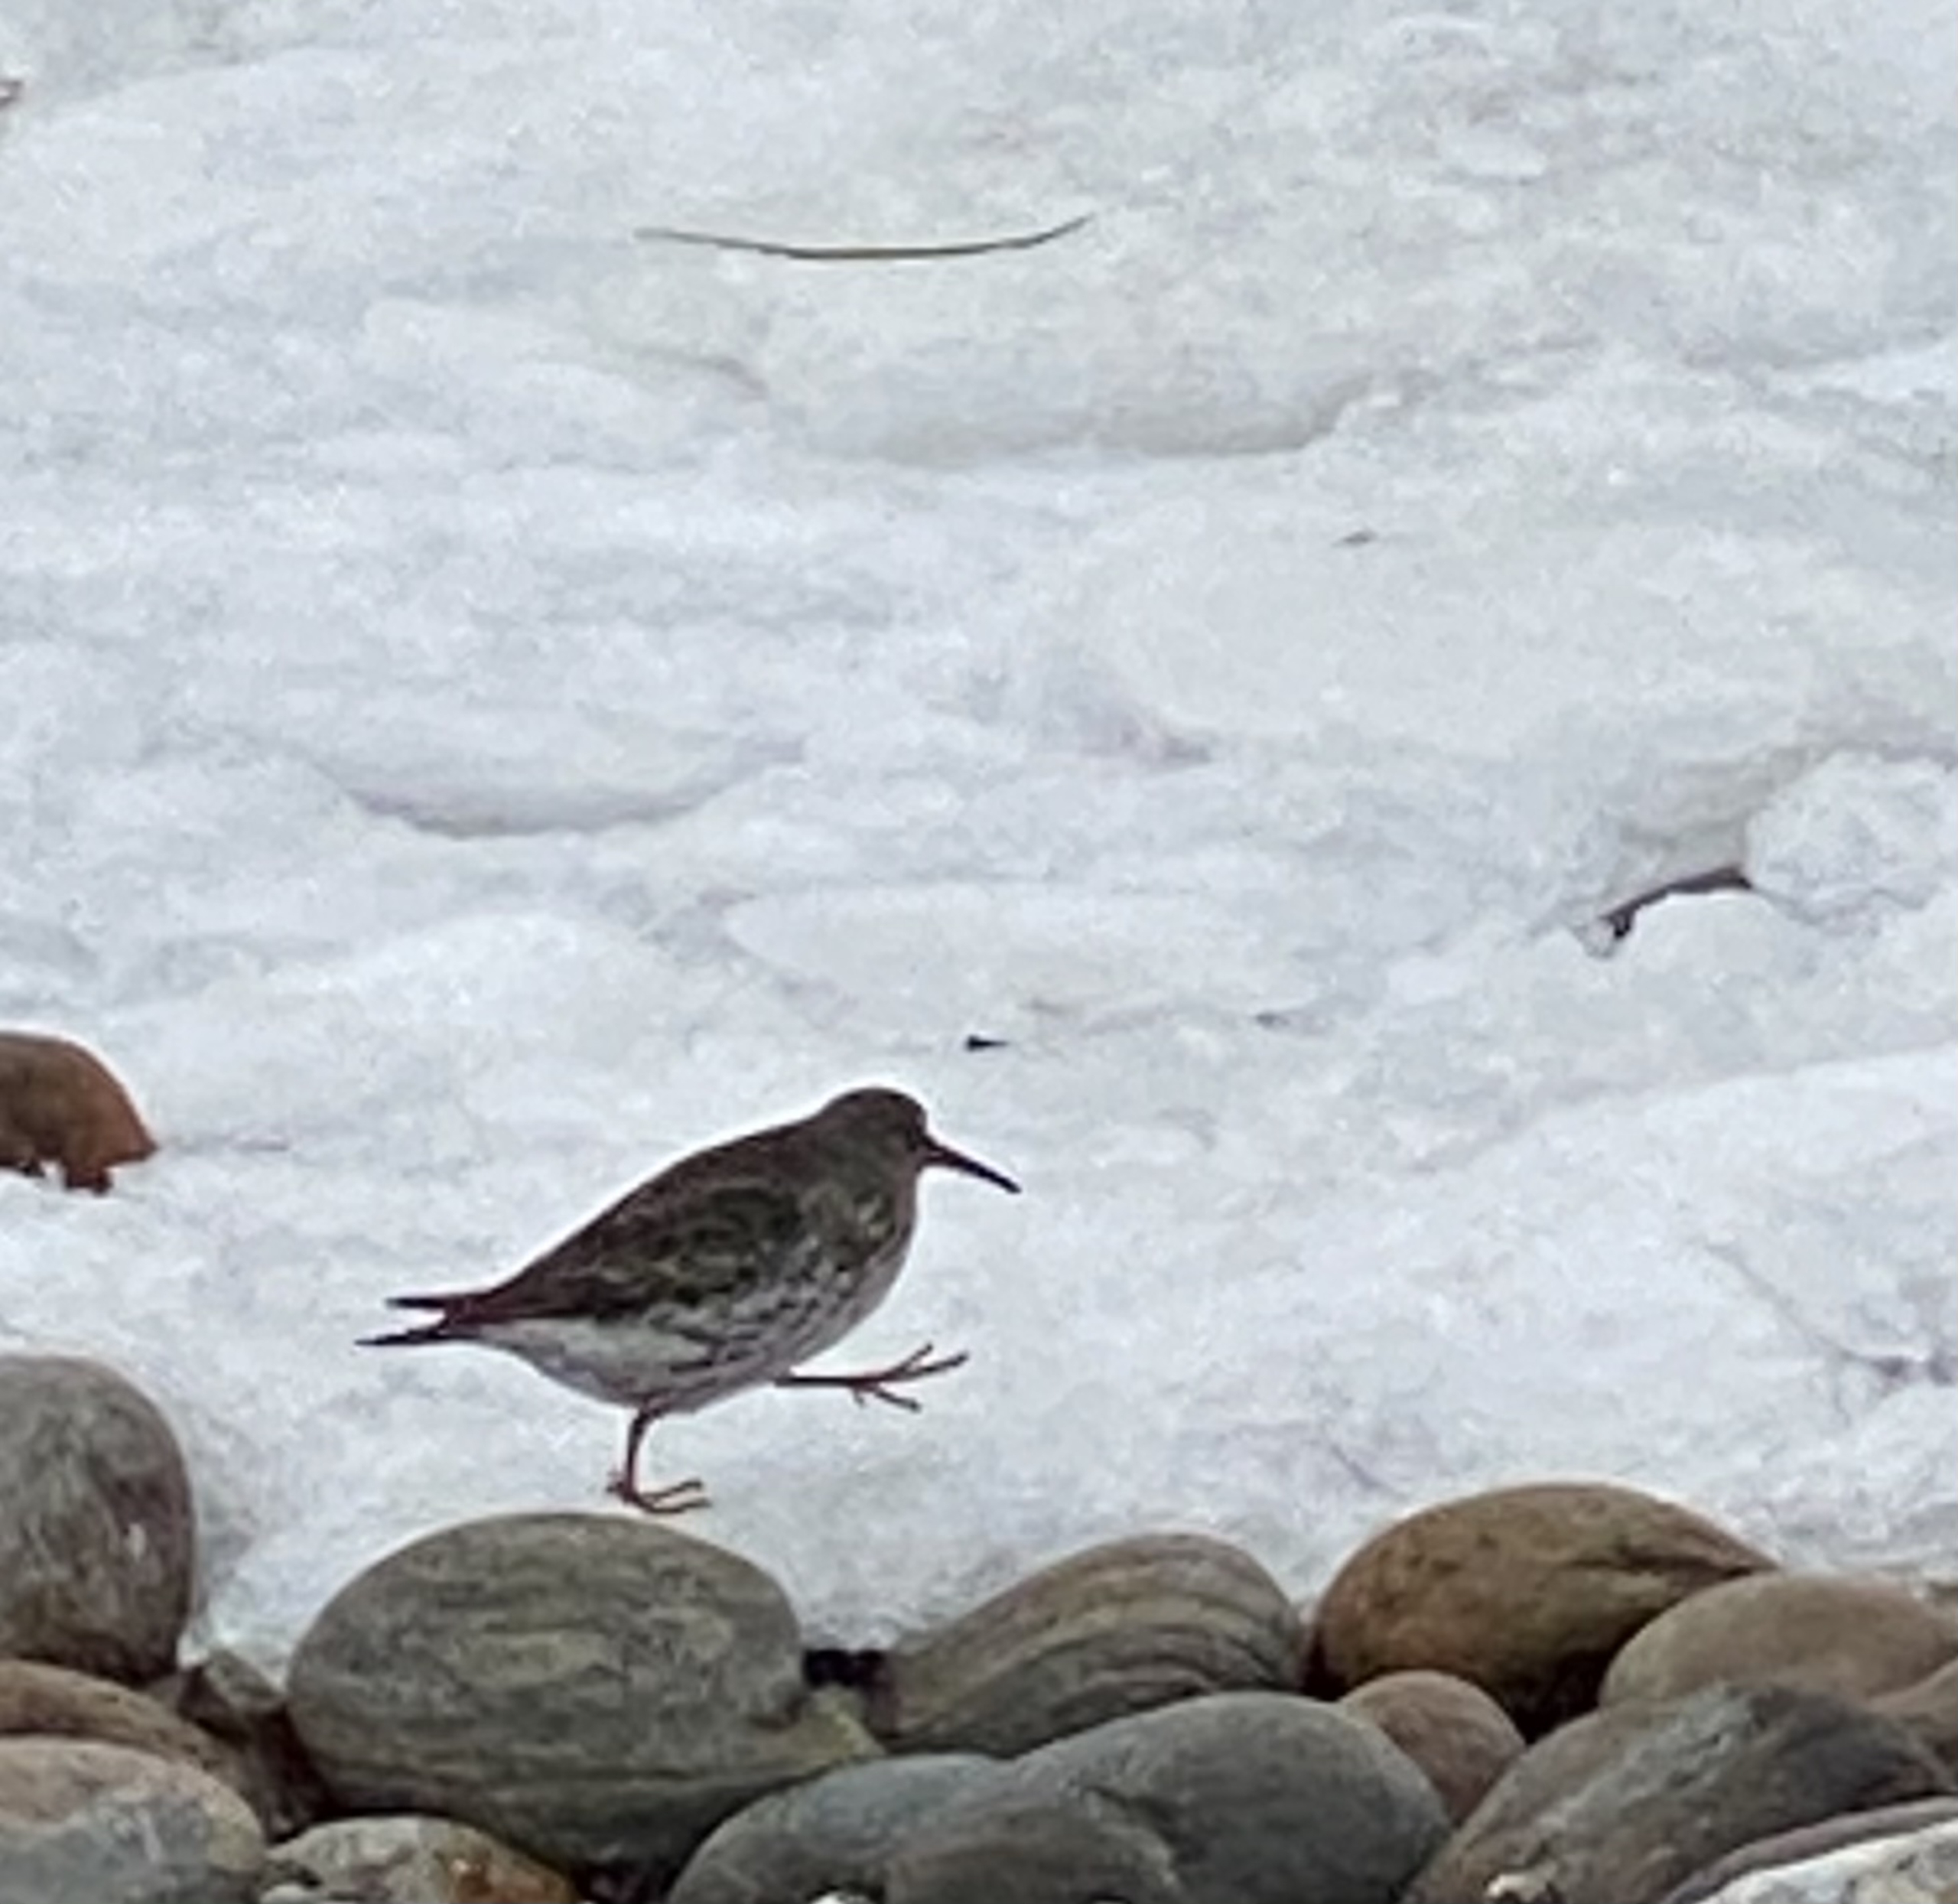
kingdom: Animalia
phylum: Chordata
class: Aves
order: Charadriiformes
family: Scolopacidae
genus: Calidris
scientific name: Calidris maritima
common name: Sortgrå ryle
